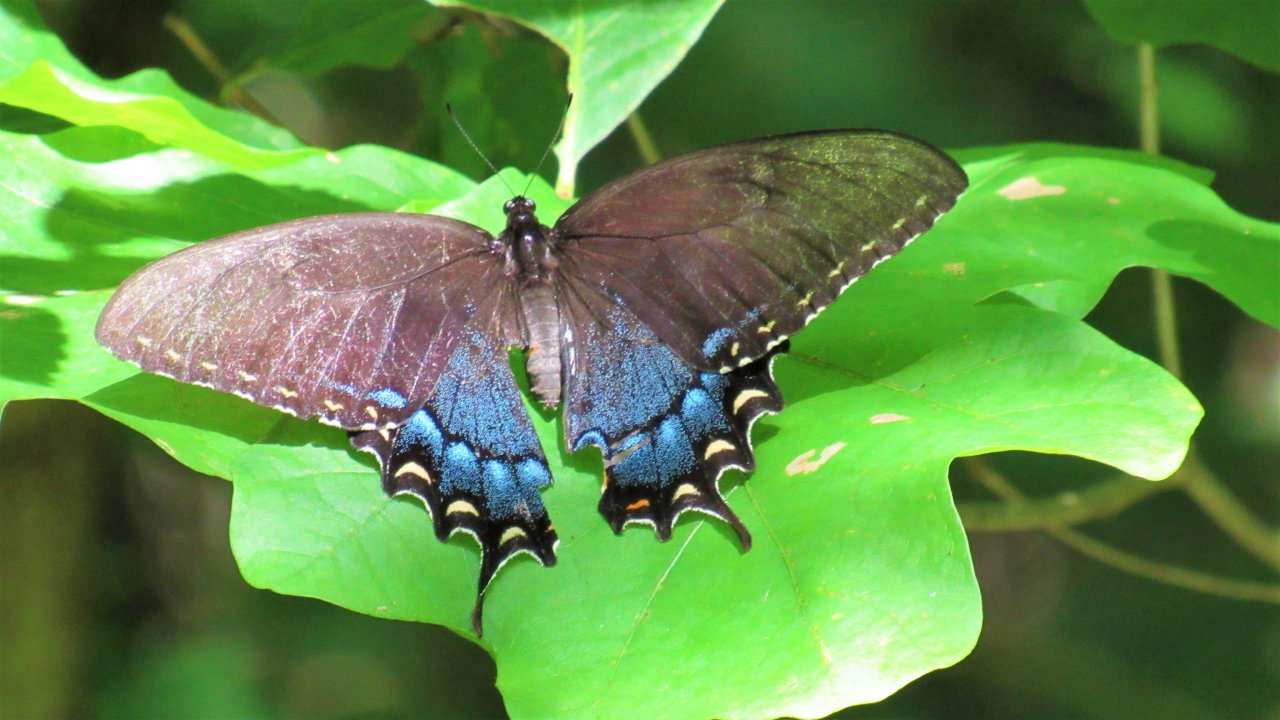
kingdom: Animalia
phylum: Arthropoda
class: Insecta
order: Lepidoptera
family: Papilionidae
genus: Pterourus
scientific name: Pterourus glaucus
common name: Eastern Tiger Swallowtail
